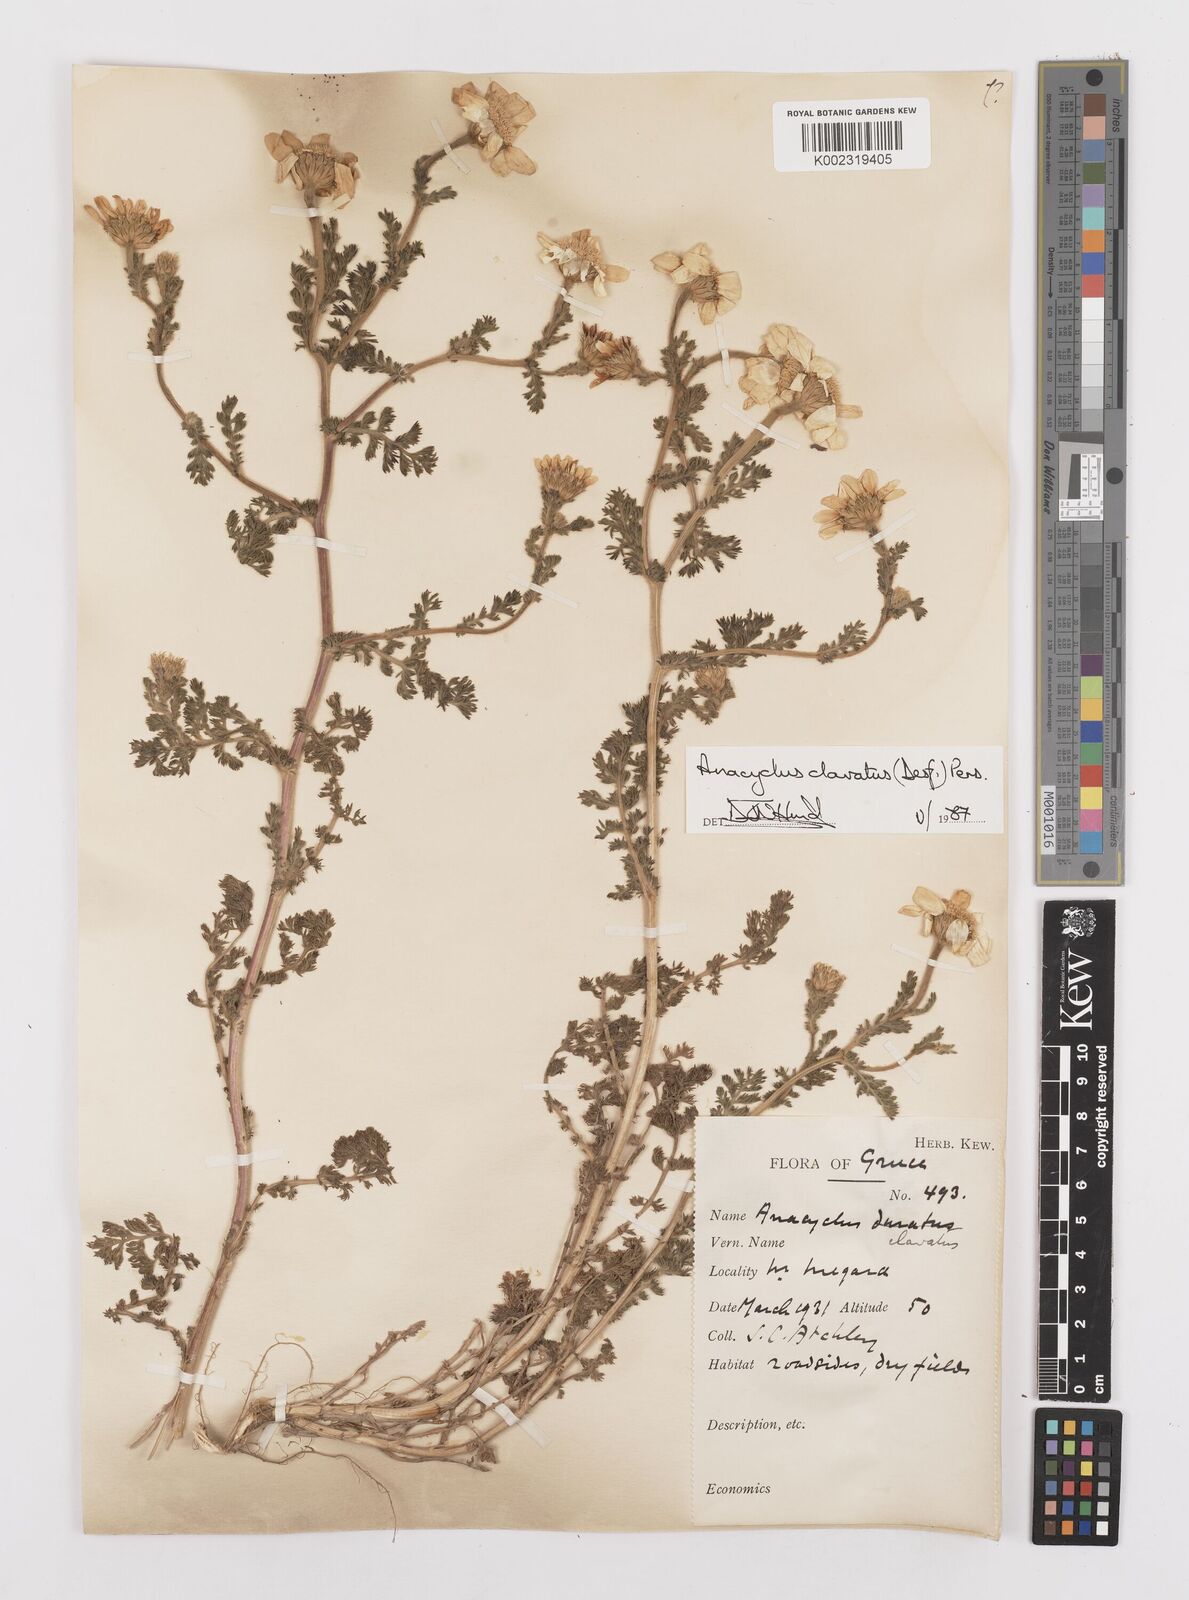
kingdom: Plantae
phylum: Tracheophyta
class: Magnoliopsida
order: Asterales
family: Asteraceae
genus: Anacyclus
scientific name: Anacyclus clavatus
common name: Whitebuttons
